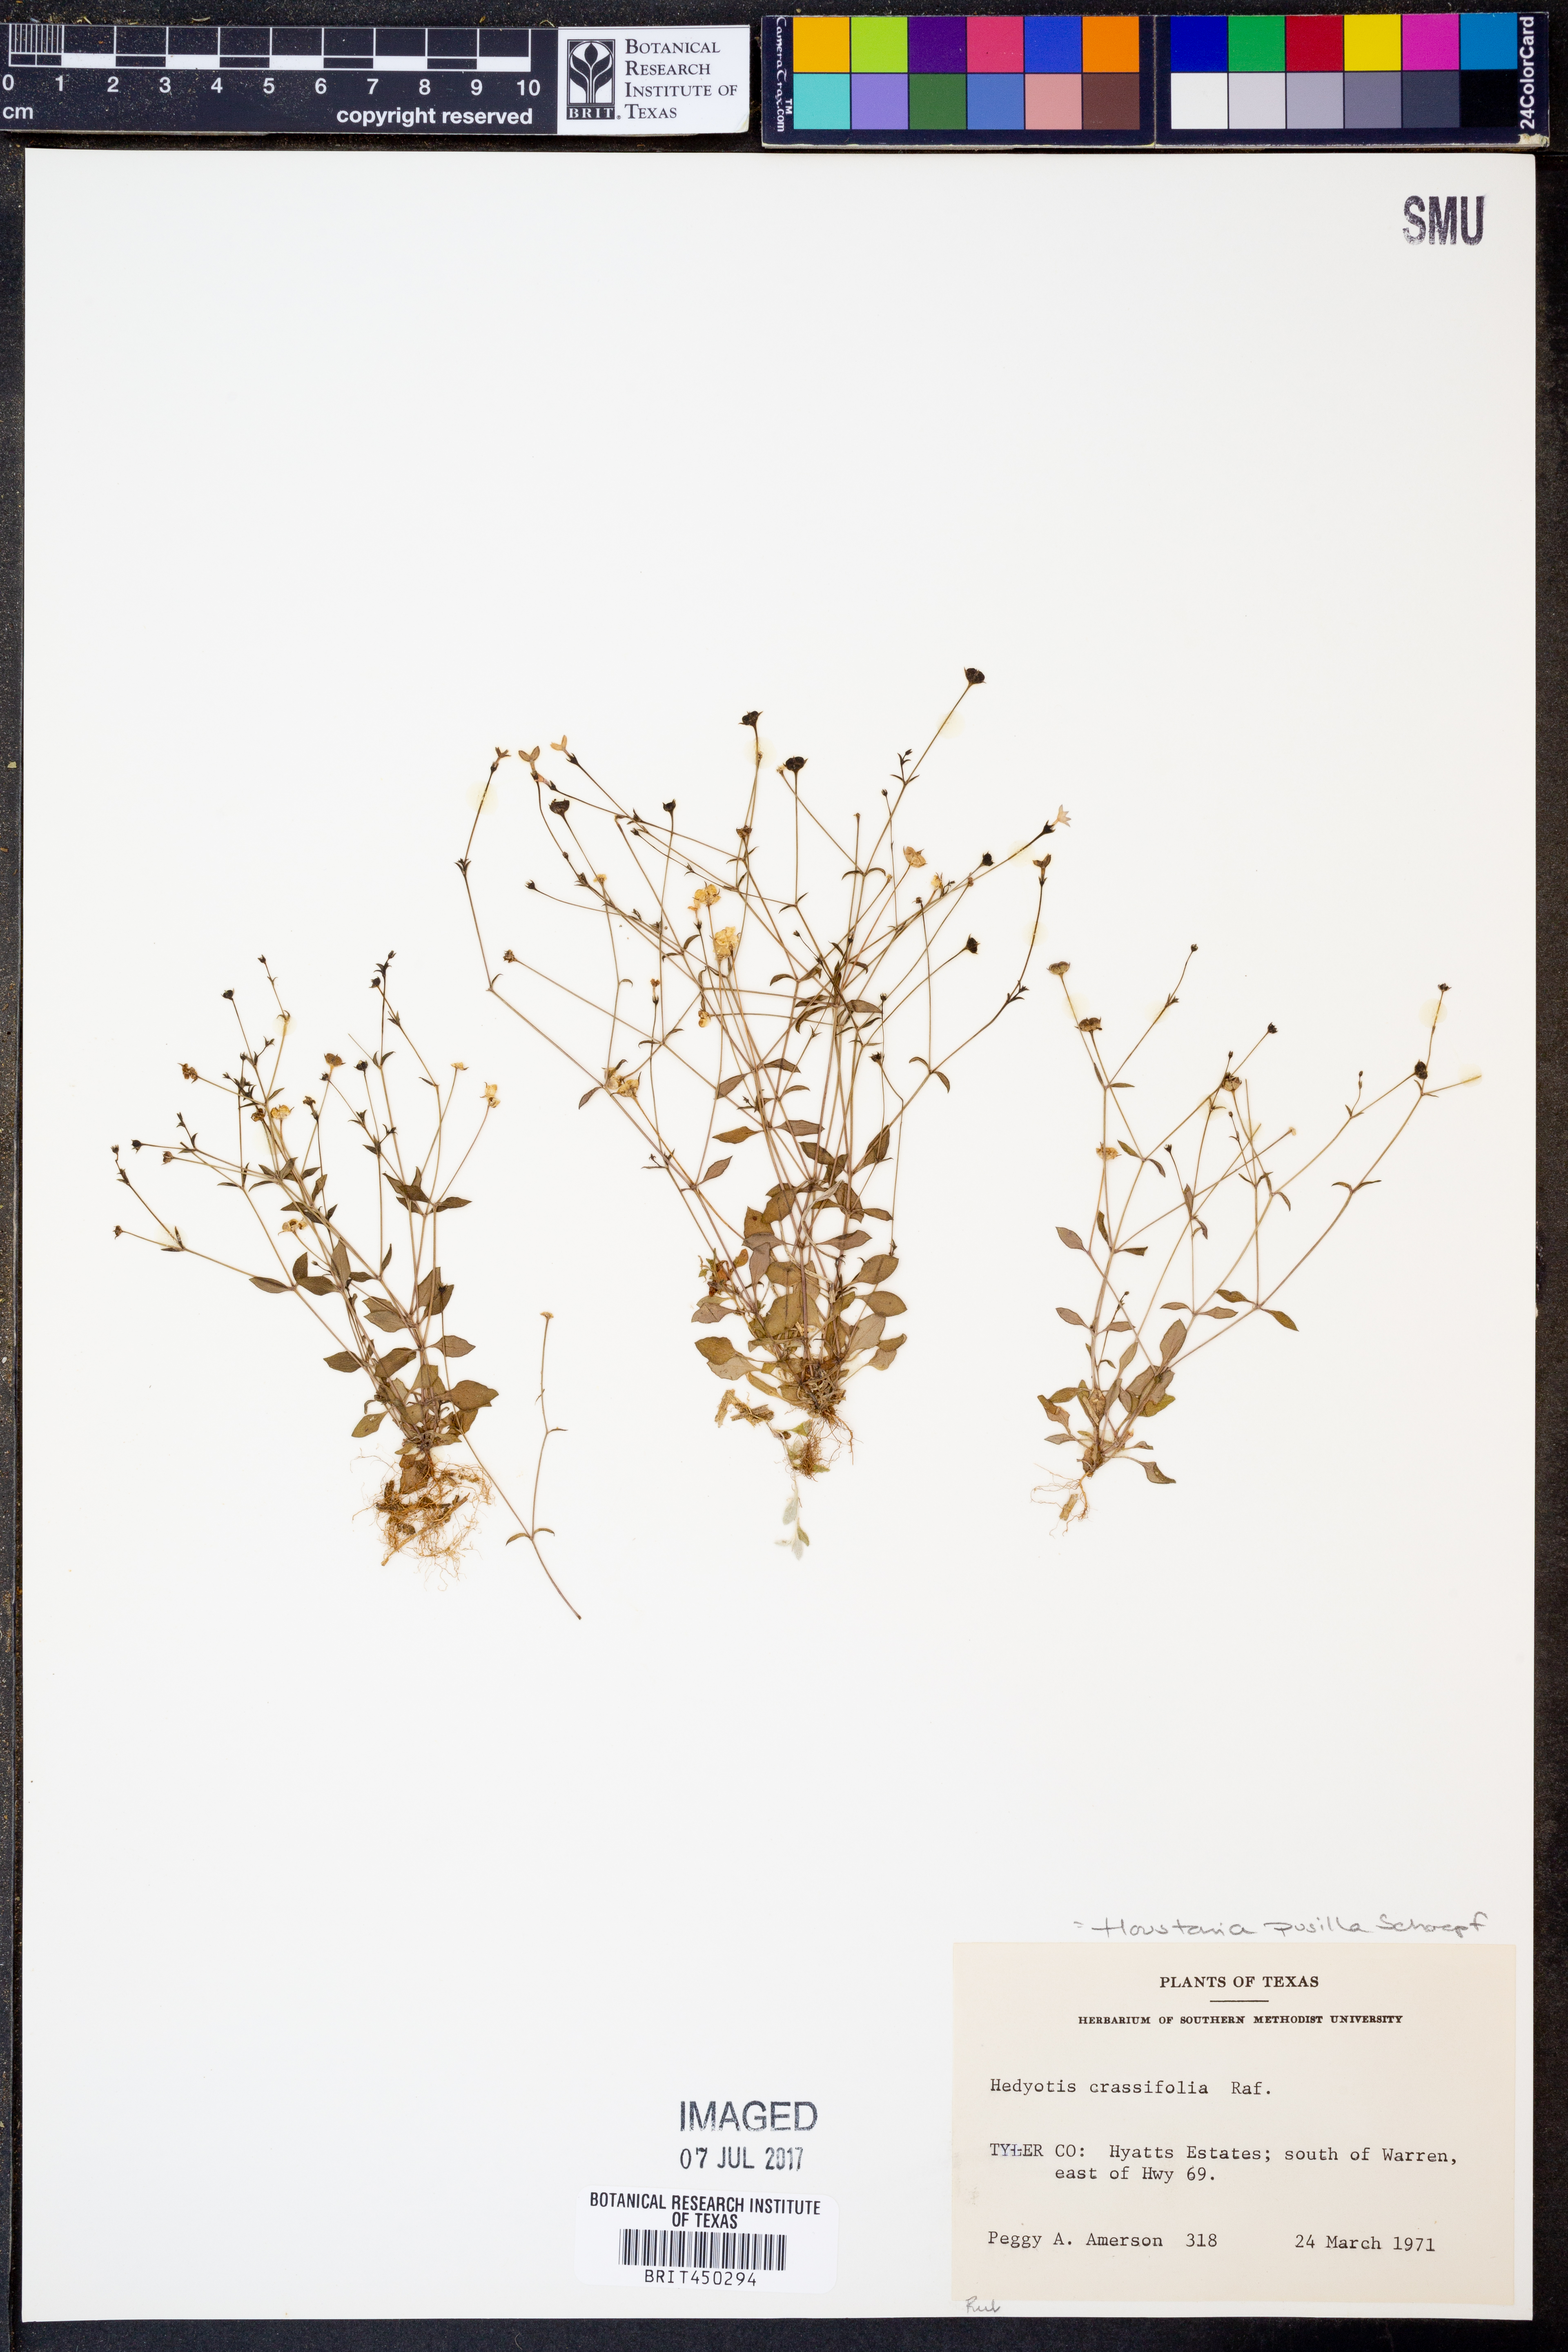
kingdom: Plantae
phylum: Tracheophyta
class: Magnoliopsida
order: Gentianales
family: Rubiaceae
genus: Houstonia
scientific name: Houstonia pusilla
